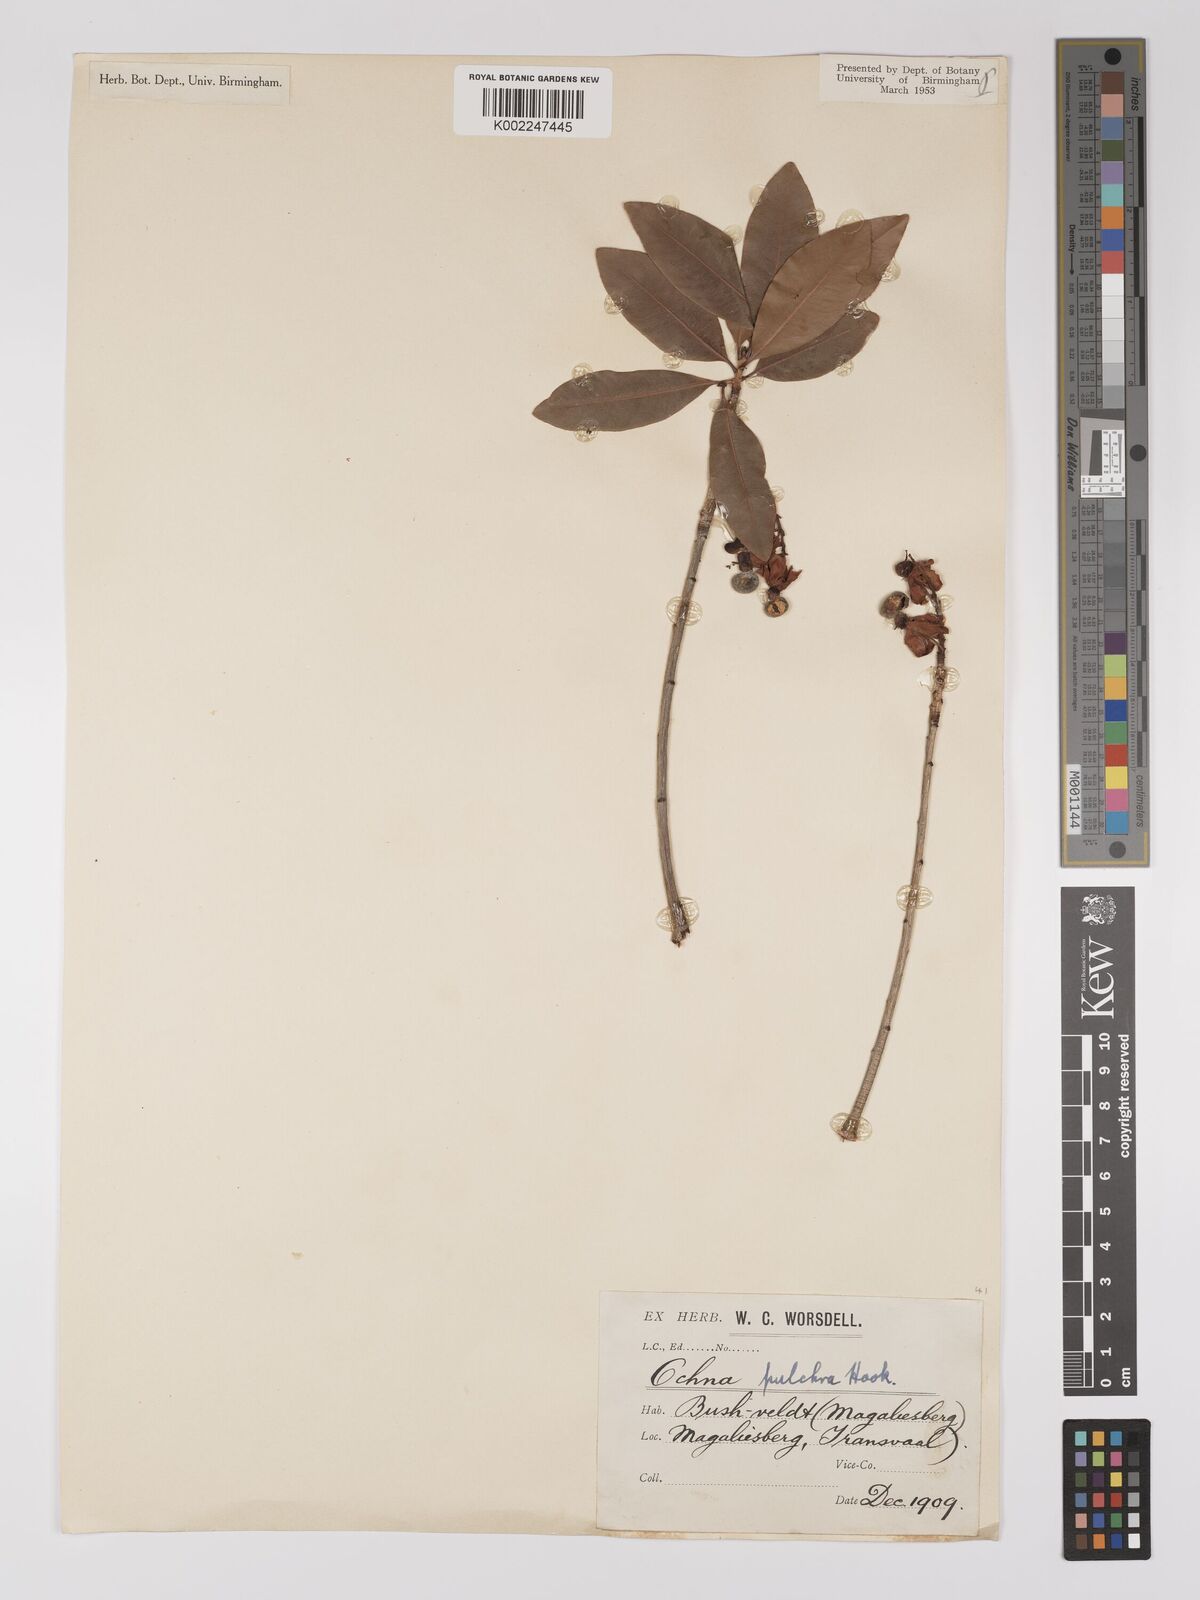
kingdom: Plantae
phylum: Tracheophyta
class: Magnoliopsida
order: Malpighiales
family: Ochnaceae
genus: Ochna
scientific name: Ochna pulchra
